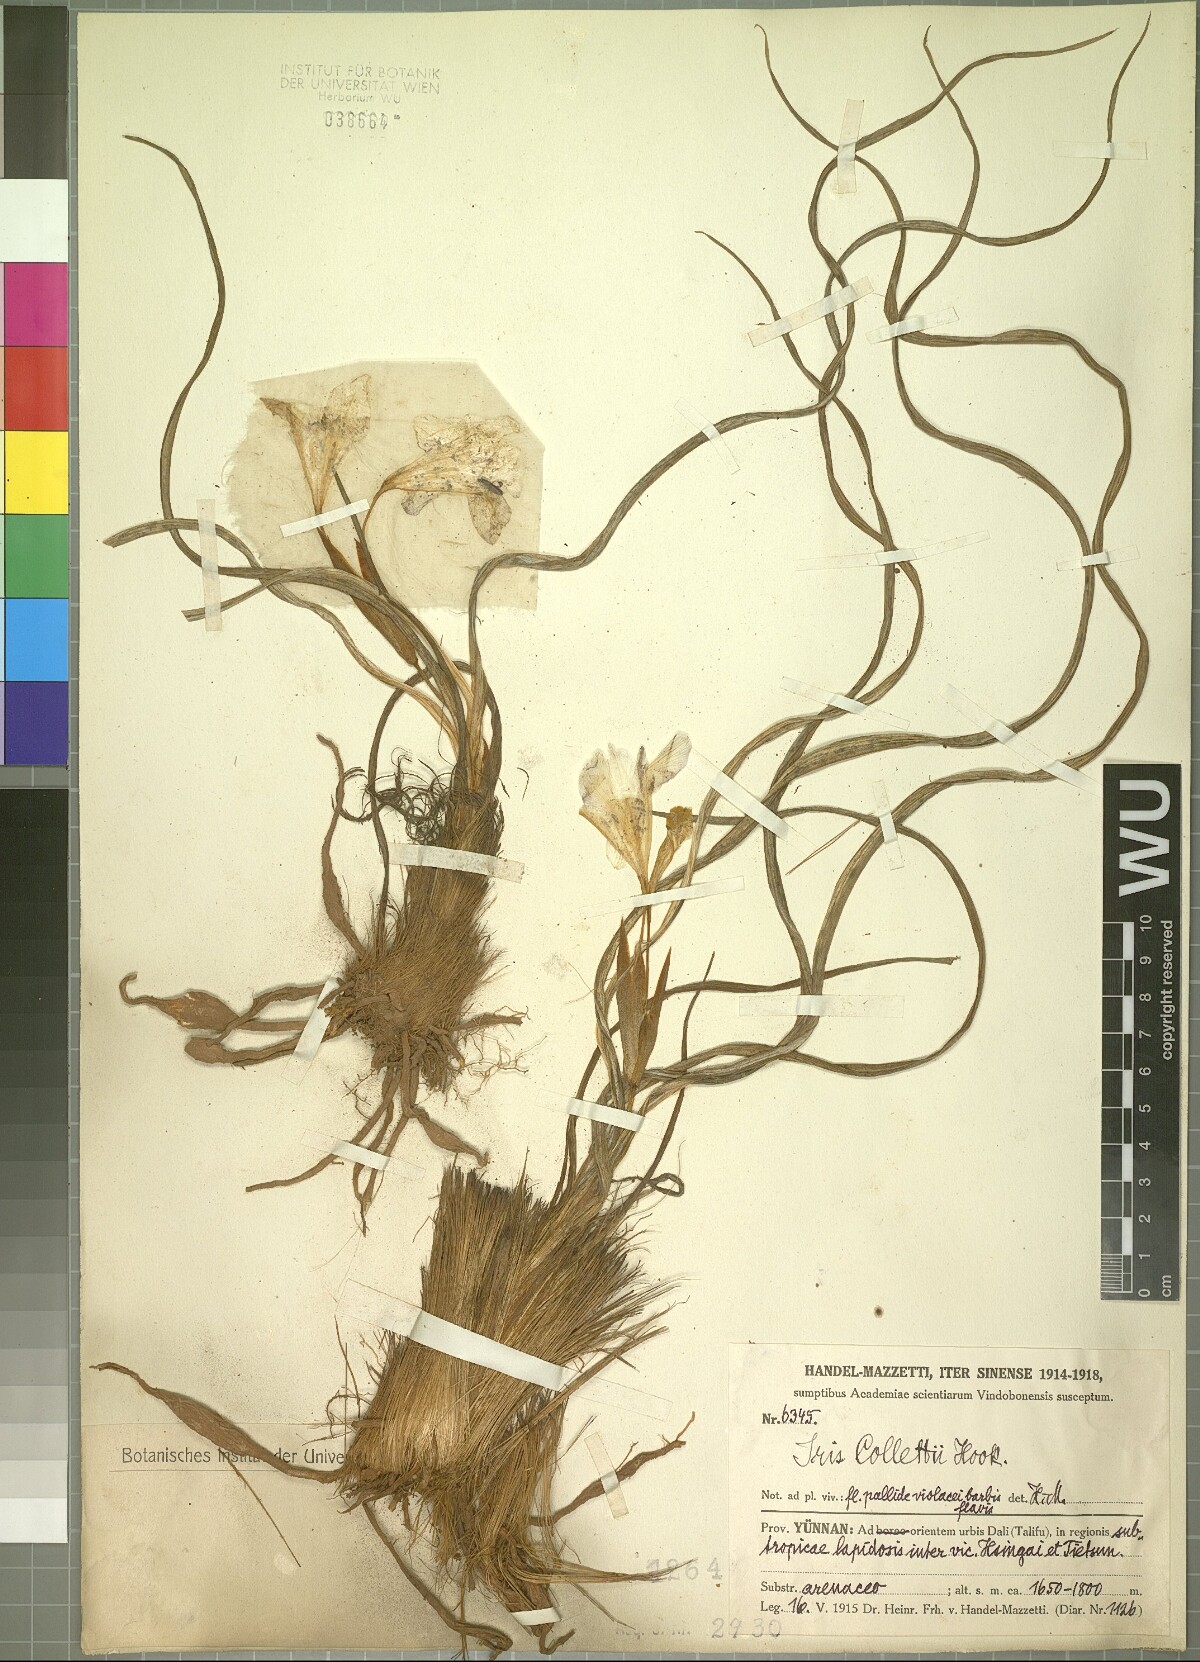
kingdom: Plantae
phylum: Tracheophyta
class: Liliopsida
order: Asparagales
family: Iridaceae
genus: Iris
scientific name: Iris collettii
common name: Plateau iris
